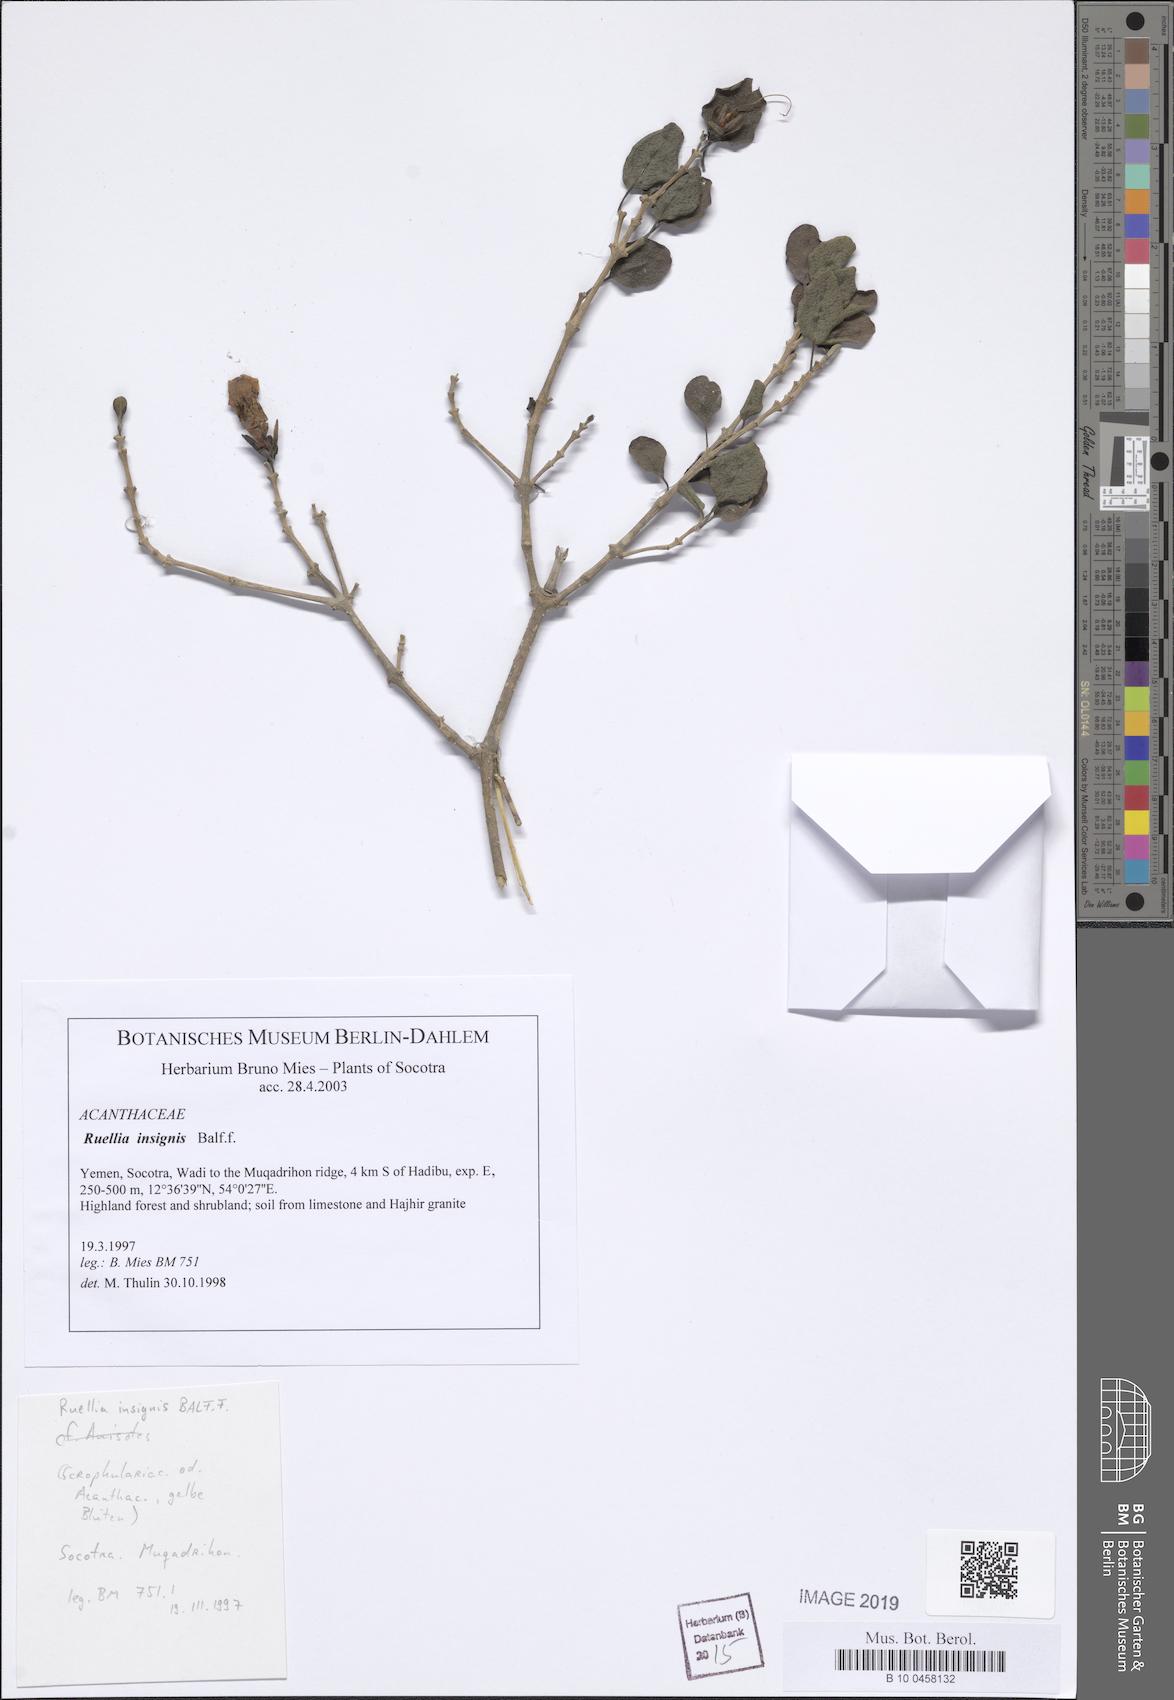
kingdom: Plantae
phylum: Tracheophyta
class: Magnoliopsida
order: Lamiales
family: Acanthaceae
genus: Ruellia
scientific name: Ruellia insignis
